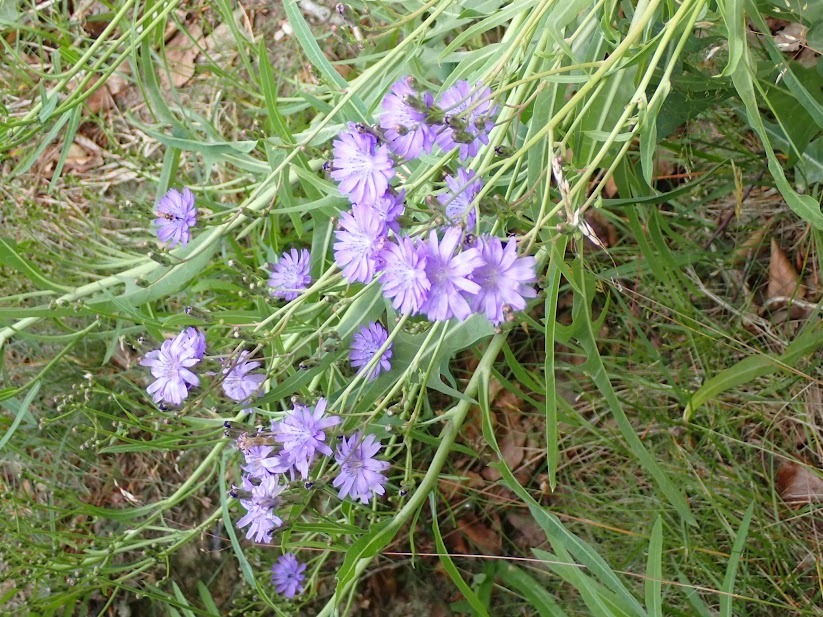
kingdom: Plantae
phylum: Tracheophyta
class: Magnoliopsida
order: Asterales
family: Asteraceae
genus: Lactuca
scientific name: Lactuca tatarica
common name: Strand-salat
